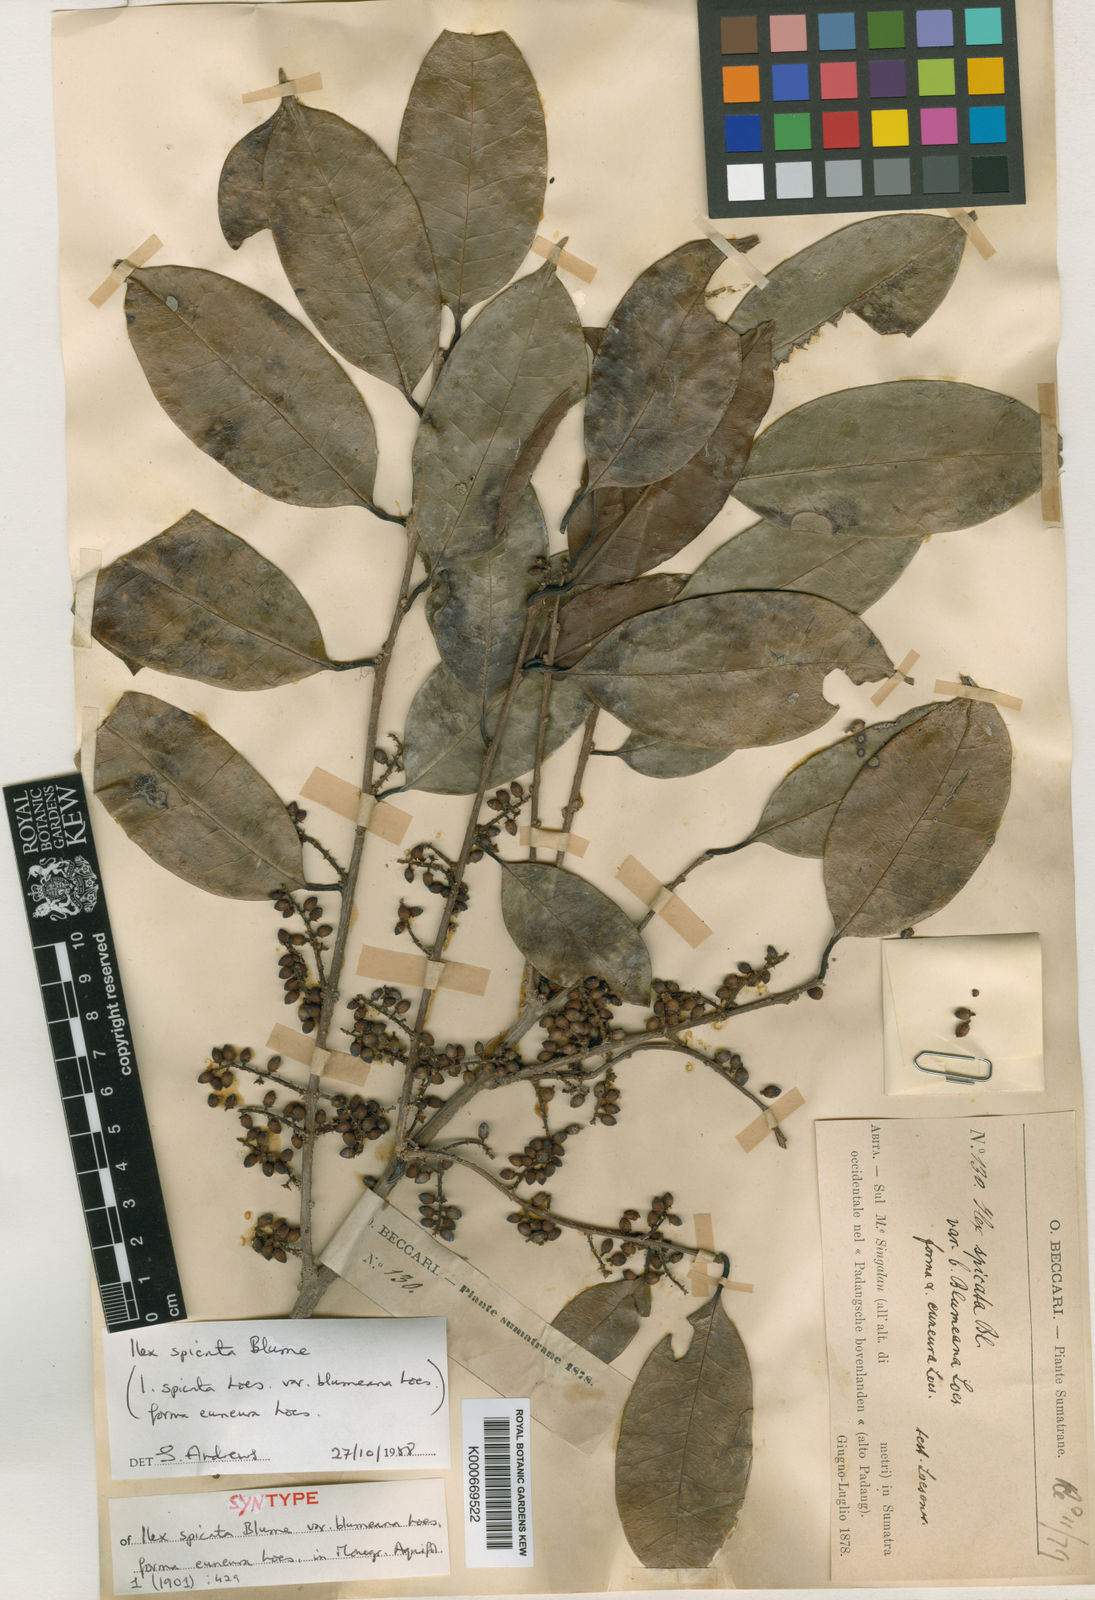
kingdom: Plantae
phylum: Tracheophyta
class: Magnoliopsida
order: Aquifoliales
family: Aquifoliaceae
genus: Ilex
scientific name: Ilex spicata
